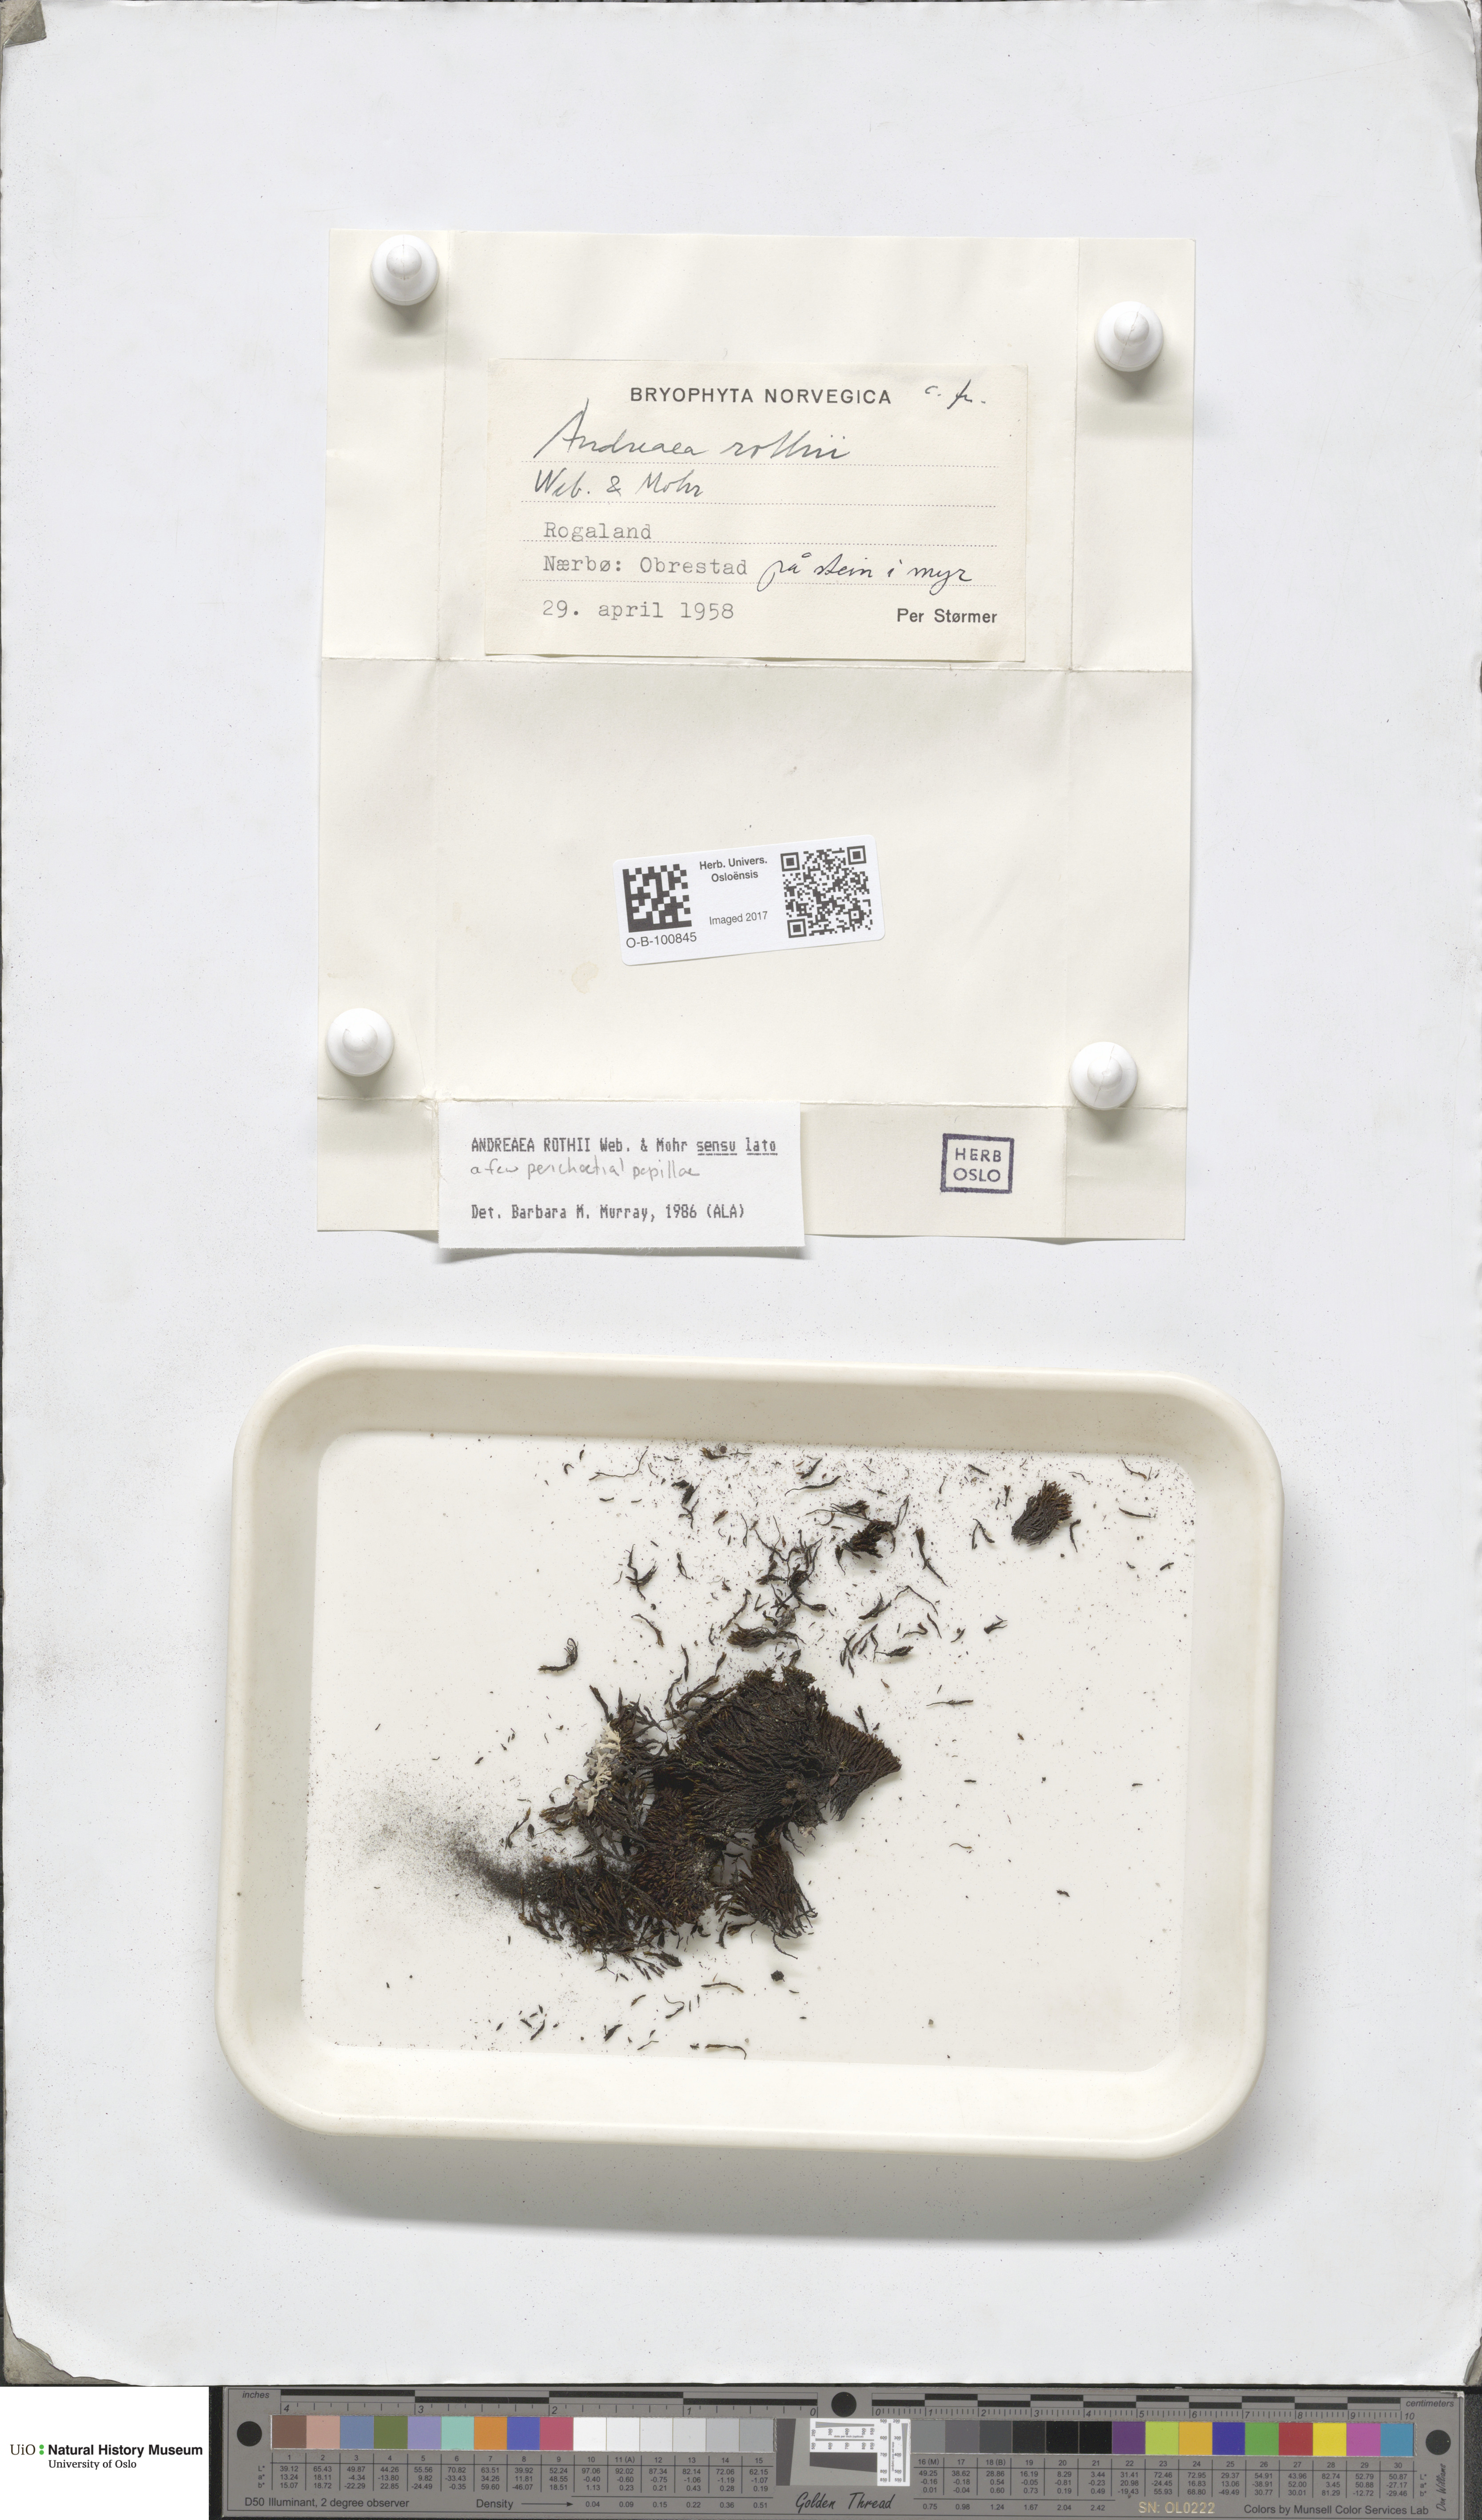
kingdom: Plantae
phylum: Bryophyta
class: Andreaeopsida
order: Andreaeales
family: Andreaeaceae
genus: Andreaea
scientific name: Andreaea rothii
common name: Dusky rock moss
